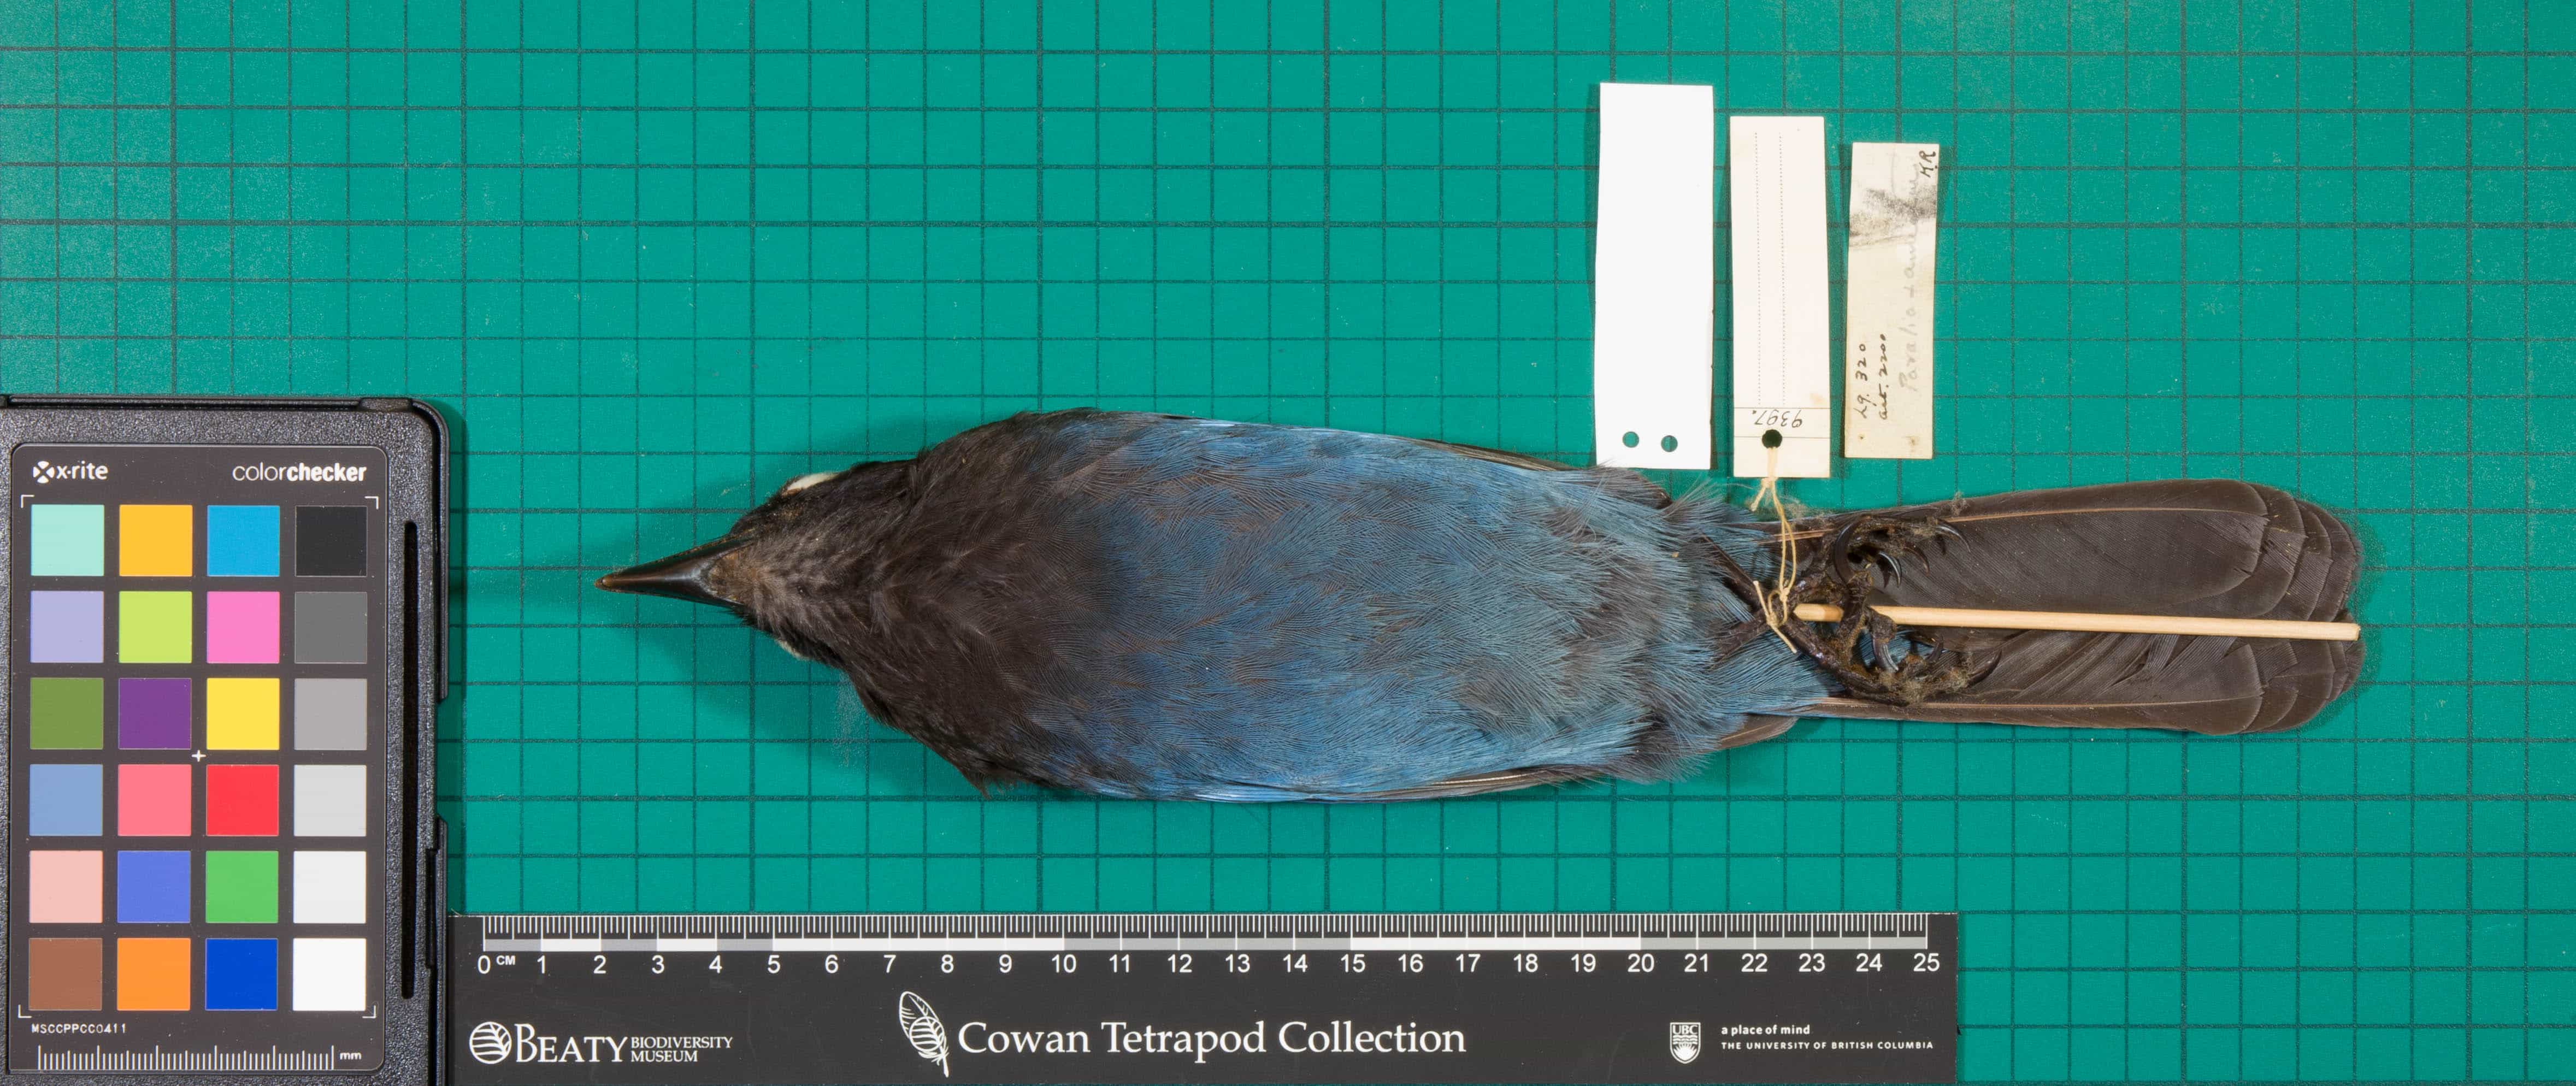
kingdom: Animalia
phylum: Chordata
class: Aves
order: Passeriformes
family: Corvidae
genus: Cyanocitta
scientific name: Cyanocitta stelleri
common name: Steller's Jay
